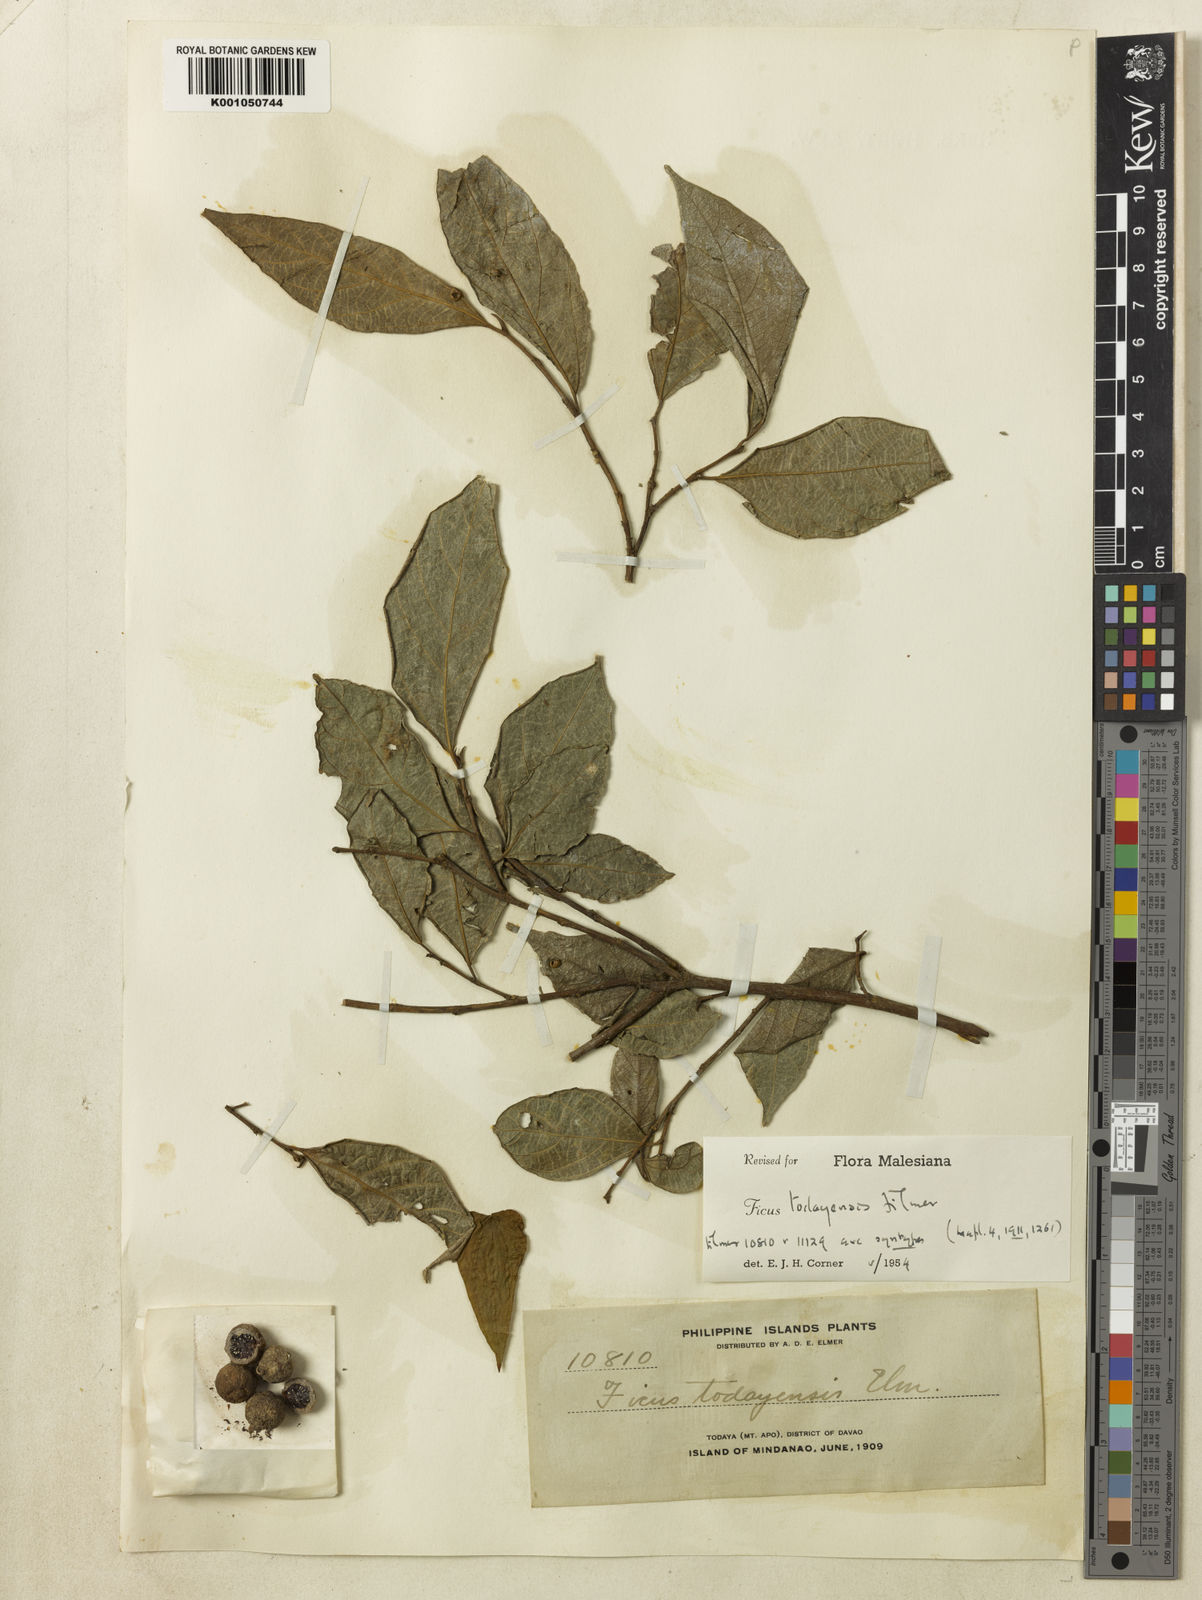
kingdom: Plantae
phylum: Tracheophyta
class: Magnoliopsida
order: Rosales
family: Moraceae
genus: Ficus
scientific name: Ficus ampelos
